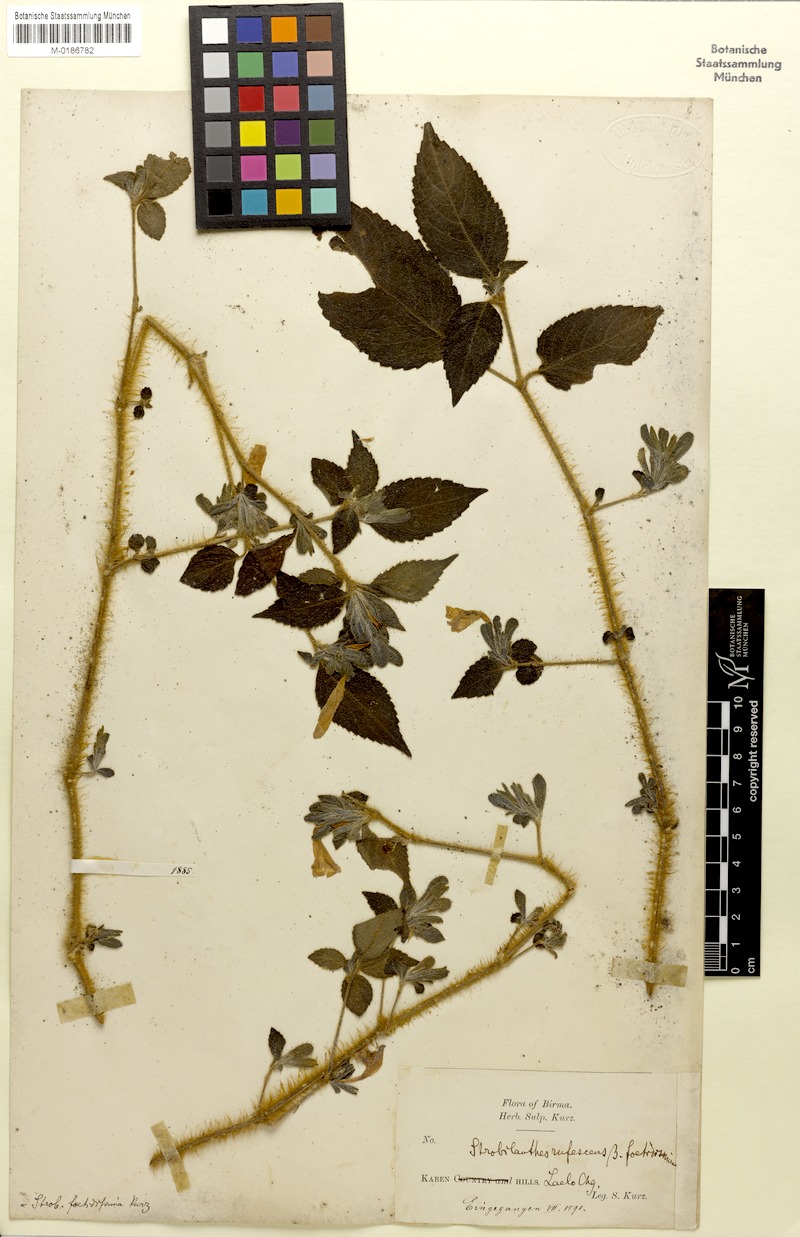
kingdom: Plantae
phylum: Tracheophyta
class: Magnoliopsida
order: Lamiales
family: Acanthaceae
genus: Strobilanthes
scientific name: Strobilanthes rufescens
